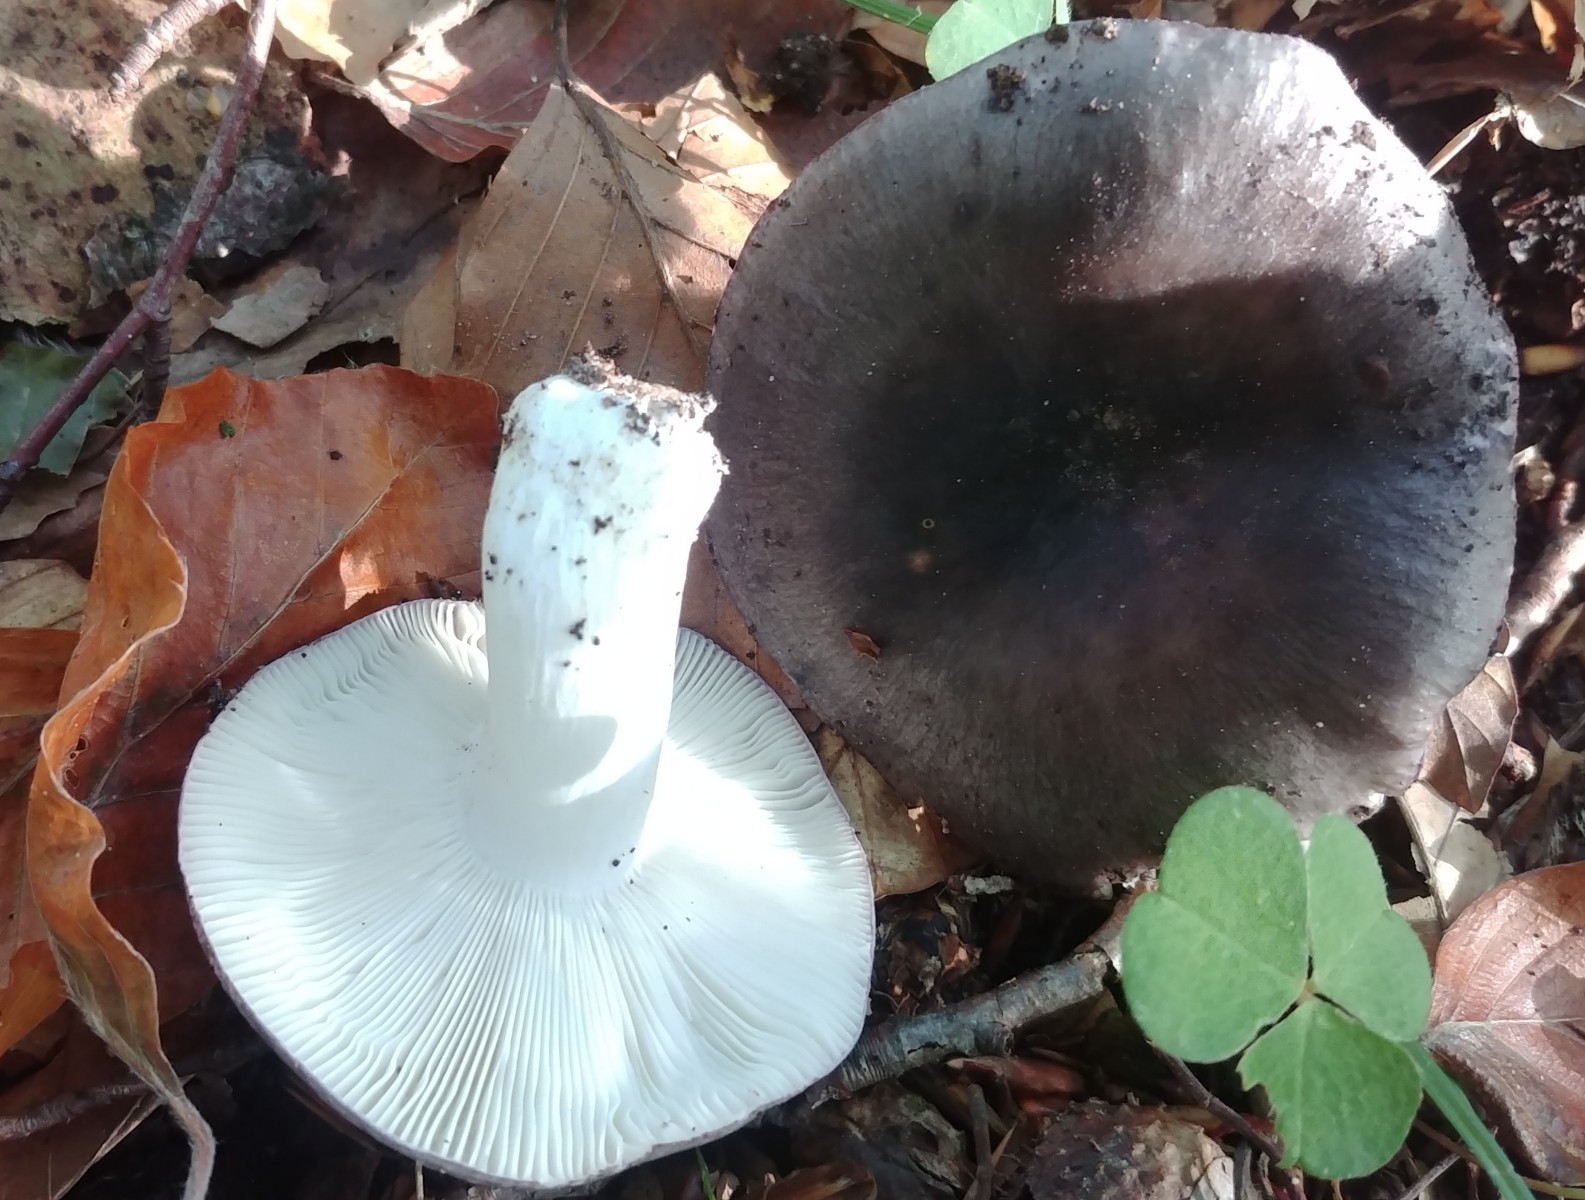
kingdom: Fungi
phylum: Basidiomycota
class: Agaricomycetes
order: Russulales
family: Russulaceae
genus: Russula
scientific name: Russula cyanoxantha
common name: broget skørhat
